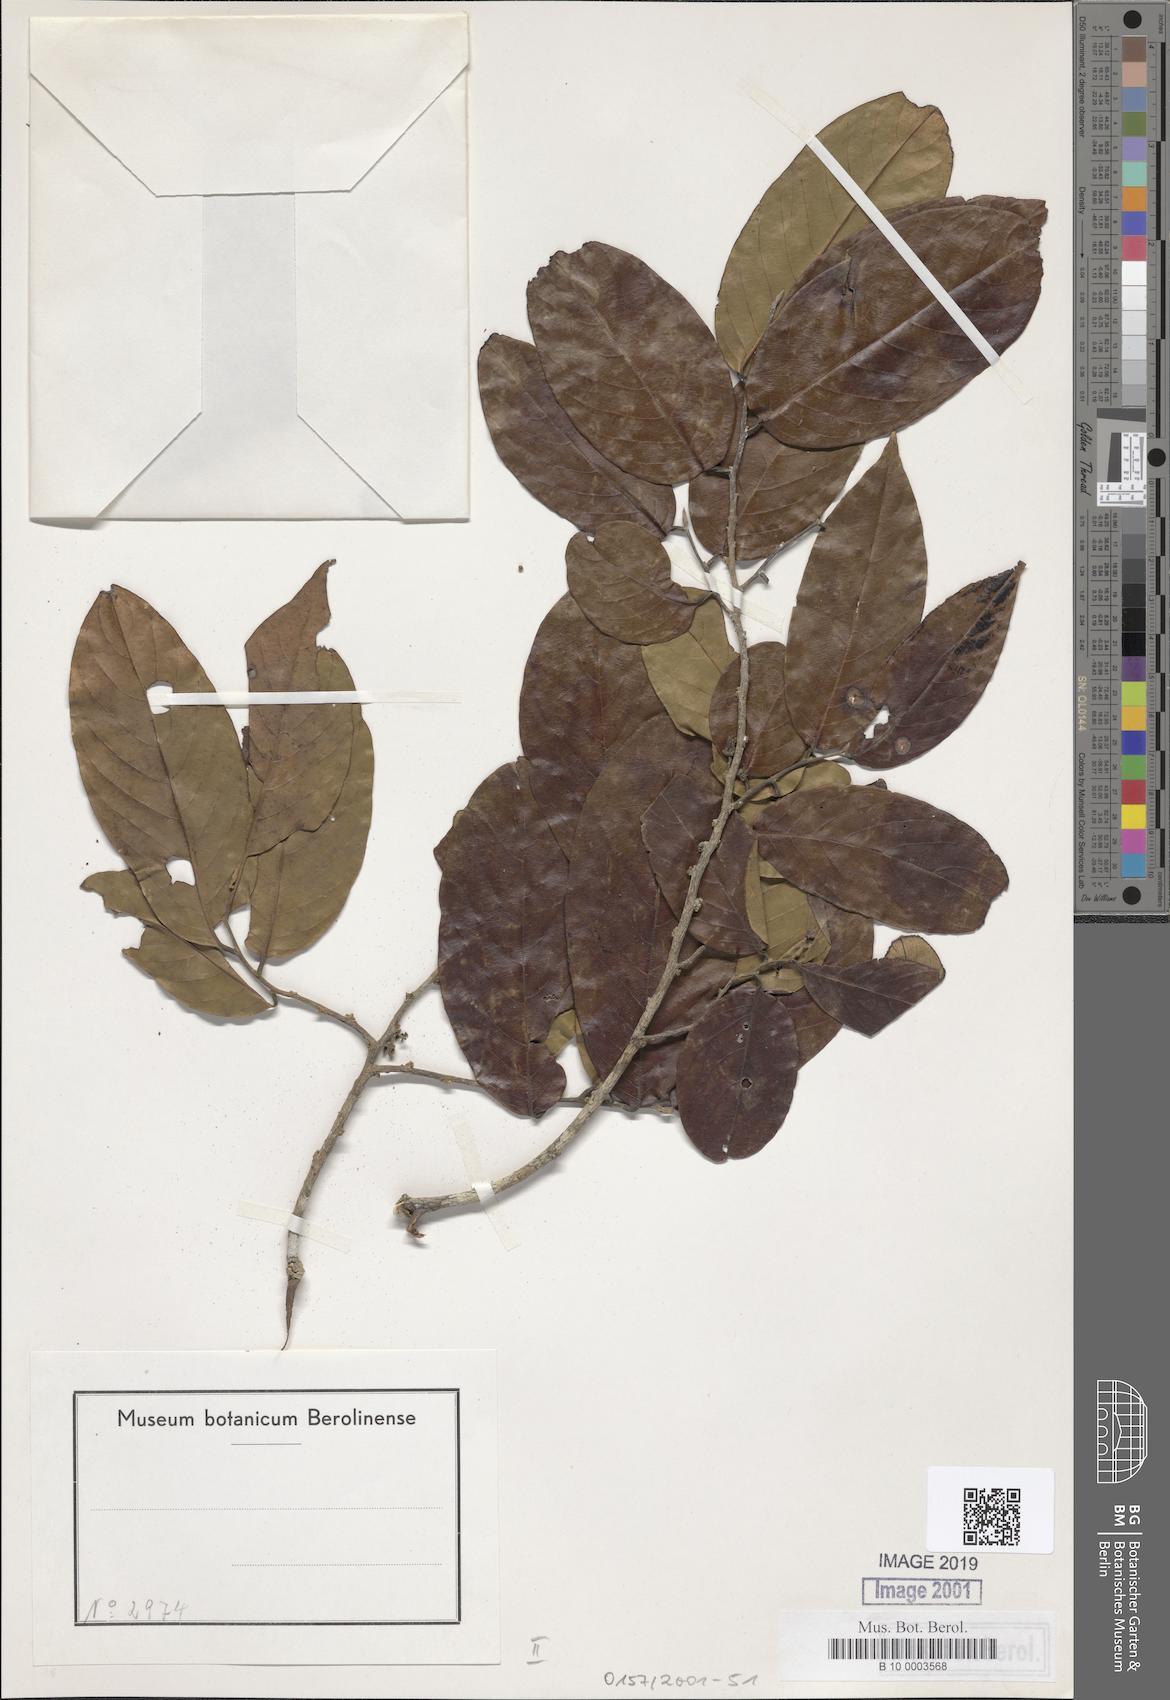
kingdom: Plantae
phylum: Tracheophyta
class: Magnoliopsida
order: Magnoliales
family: Annonaceae
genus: Cyathocalyx
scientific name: Cyathocalyx
